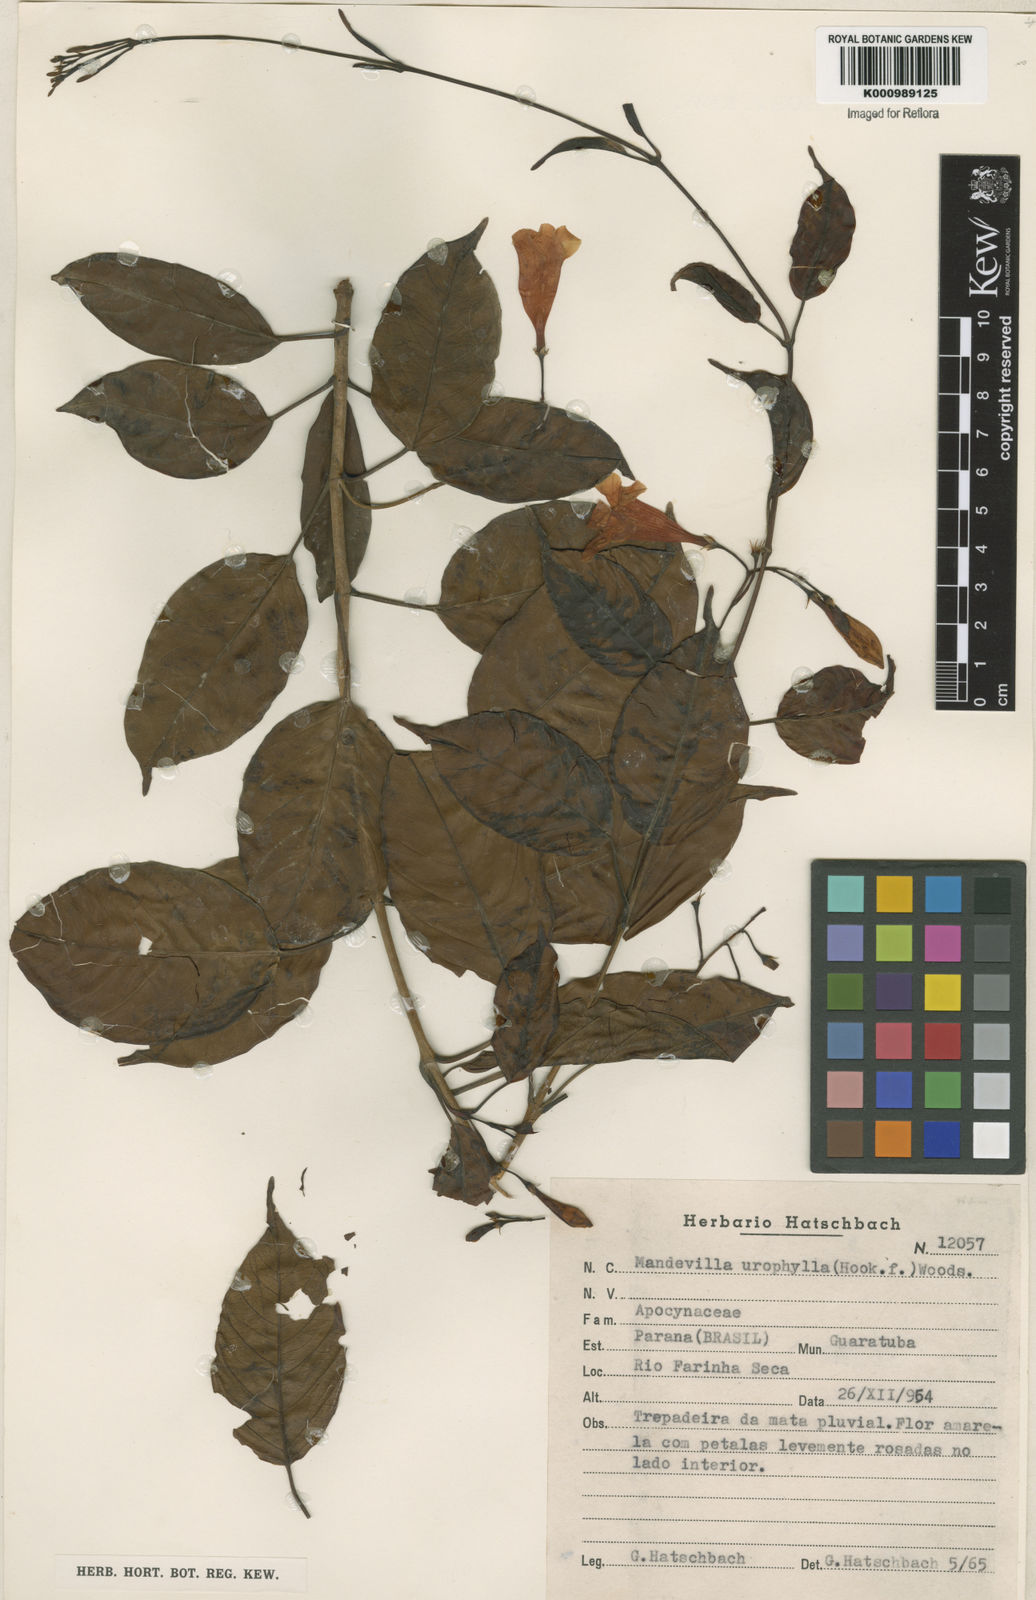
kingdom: Plantae
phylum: Tracheophyta
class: Magnoliopsida
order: Gentianales
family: Apocynaceae
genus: Mandevilla
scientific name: Mandevilla urophylla
